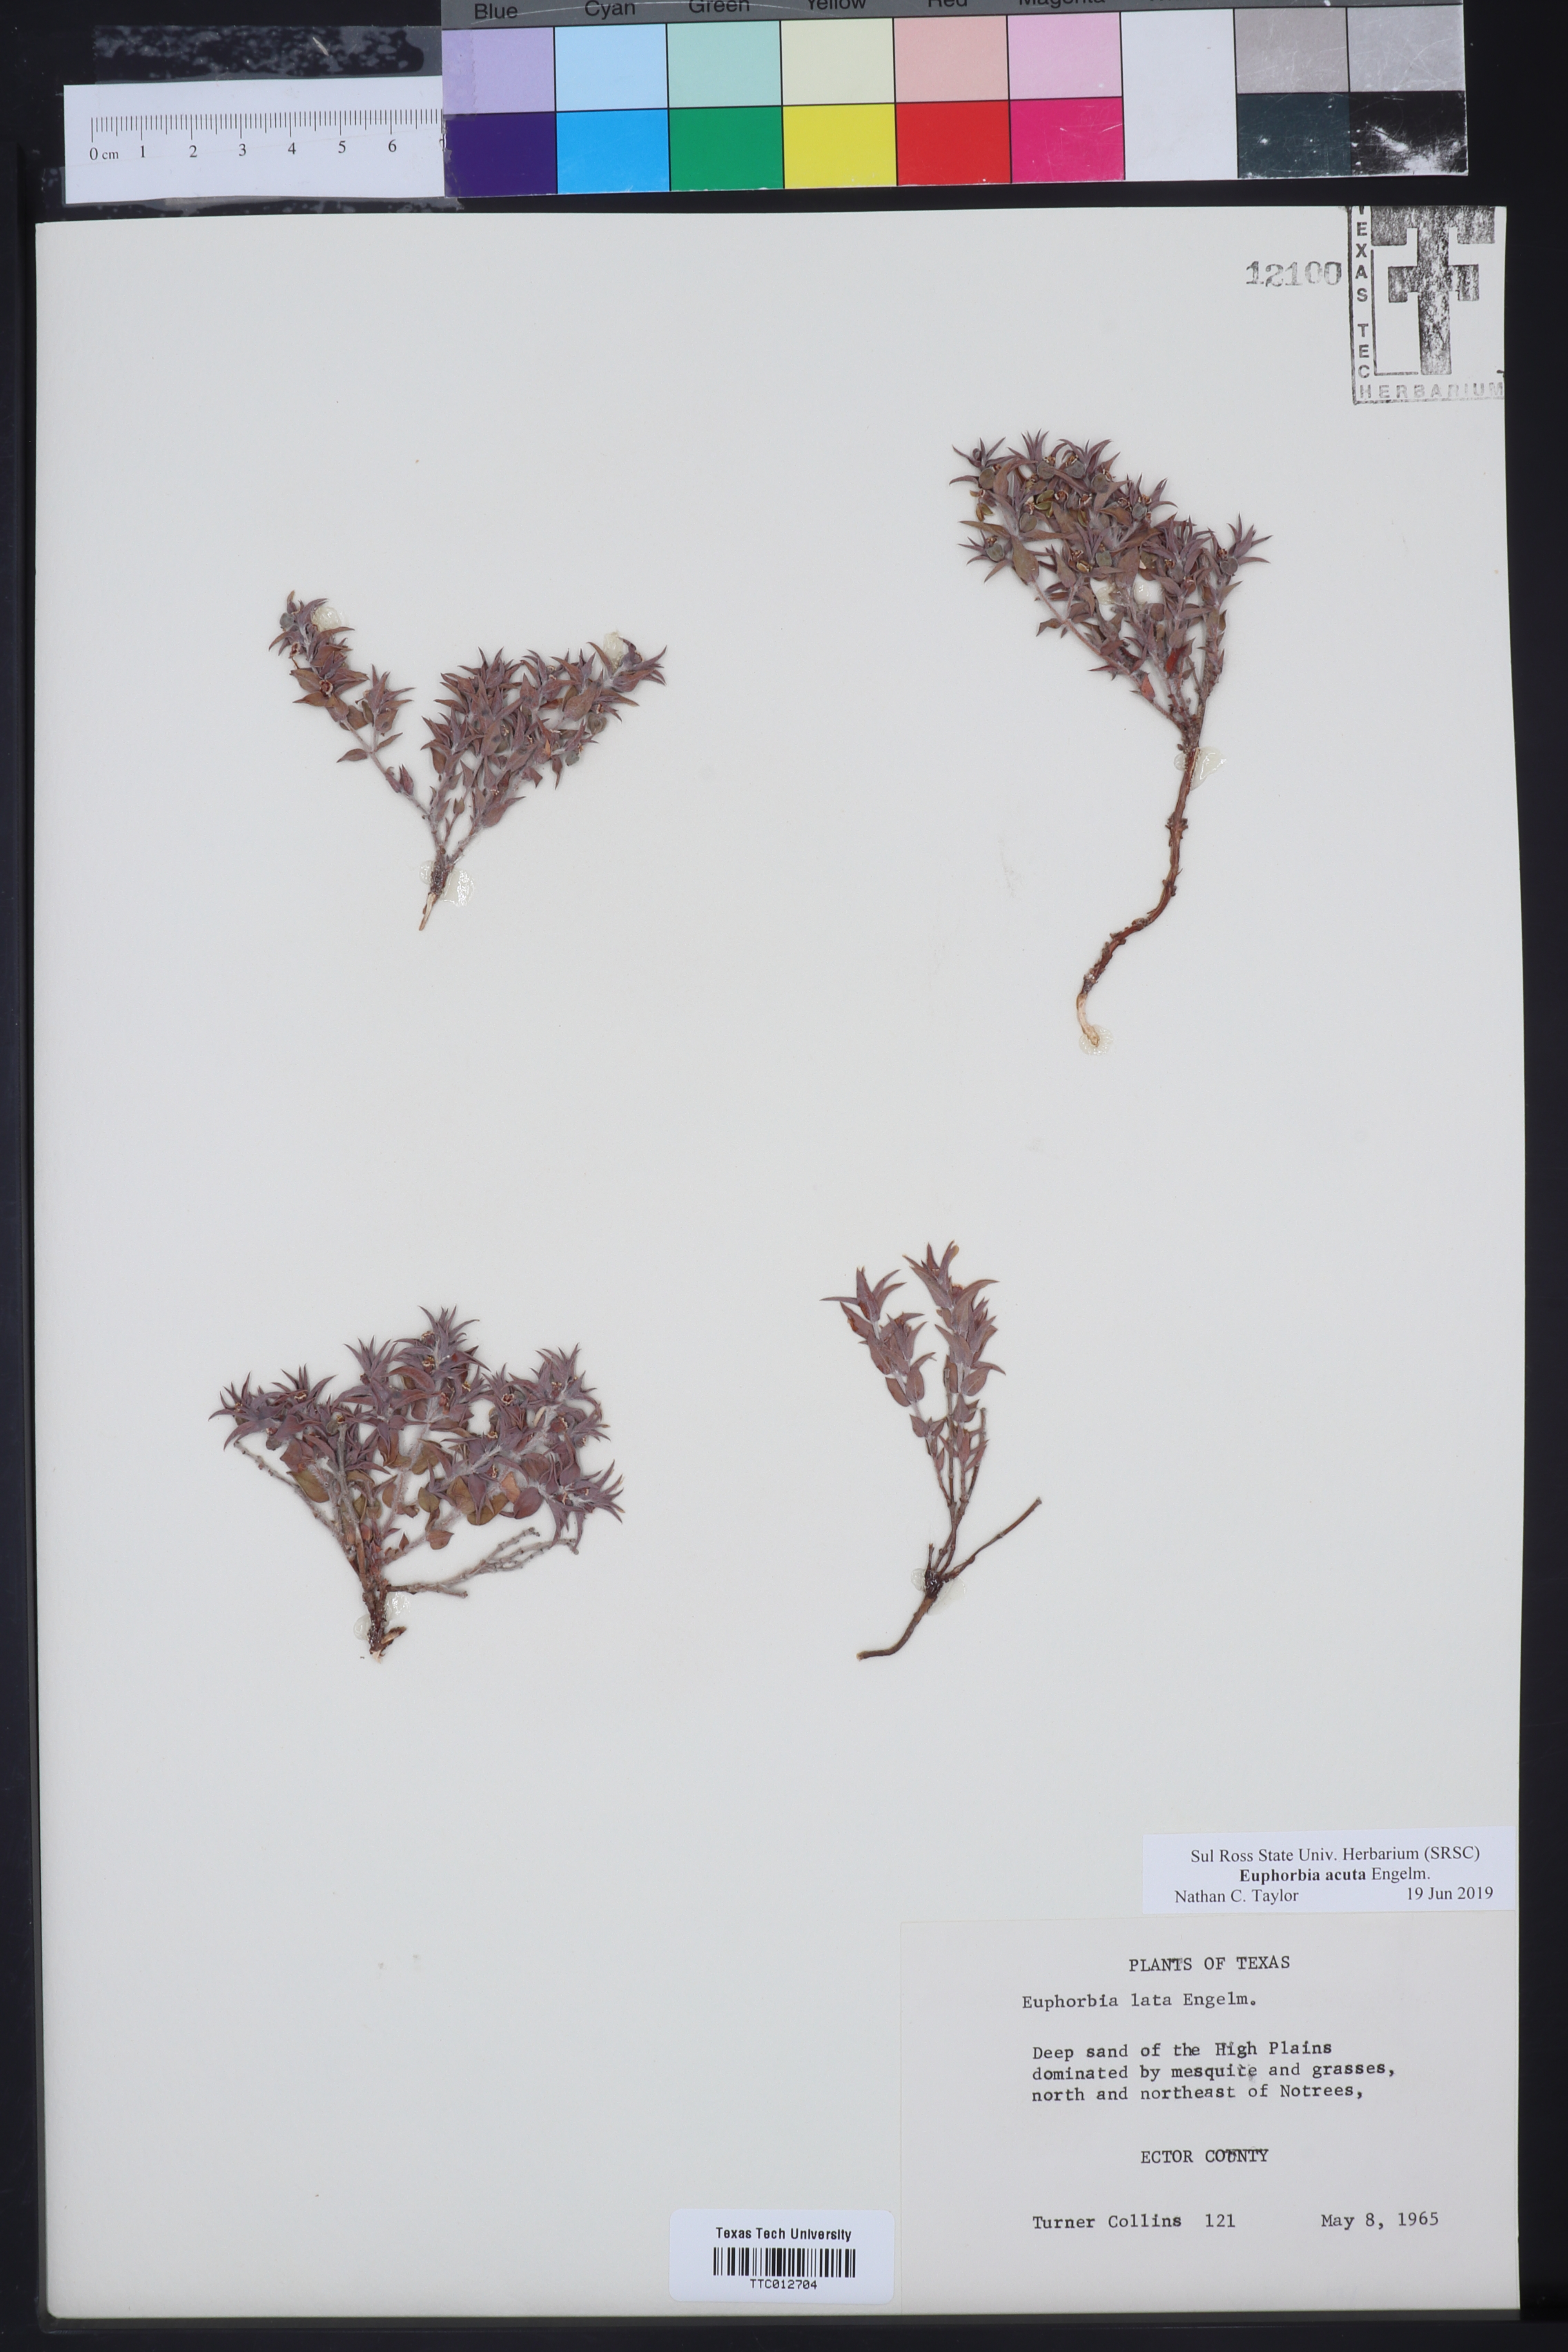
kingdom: Plantae
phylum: Tracheophyta
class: Magnoliopsida
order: Malpighiales
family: Euphorbiaceae
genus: Euphorbia
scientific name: Euphorbia acuta
